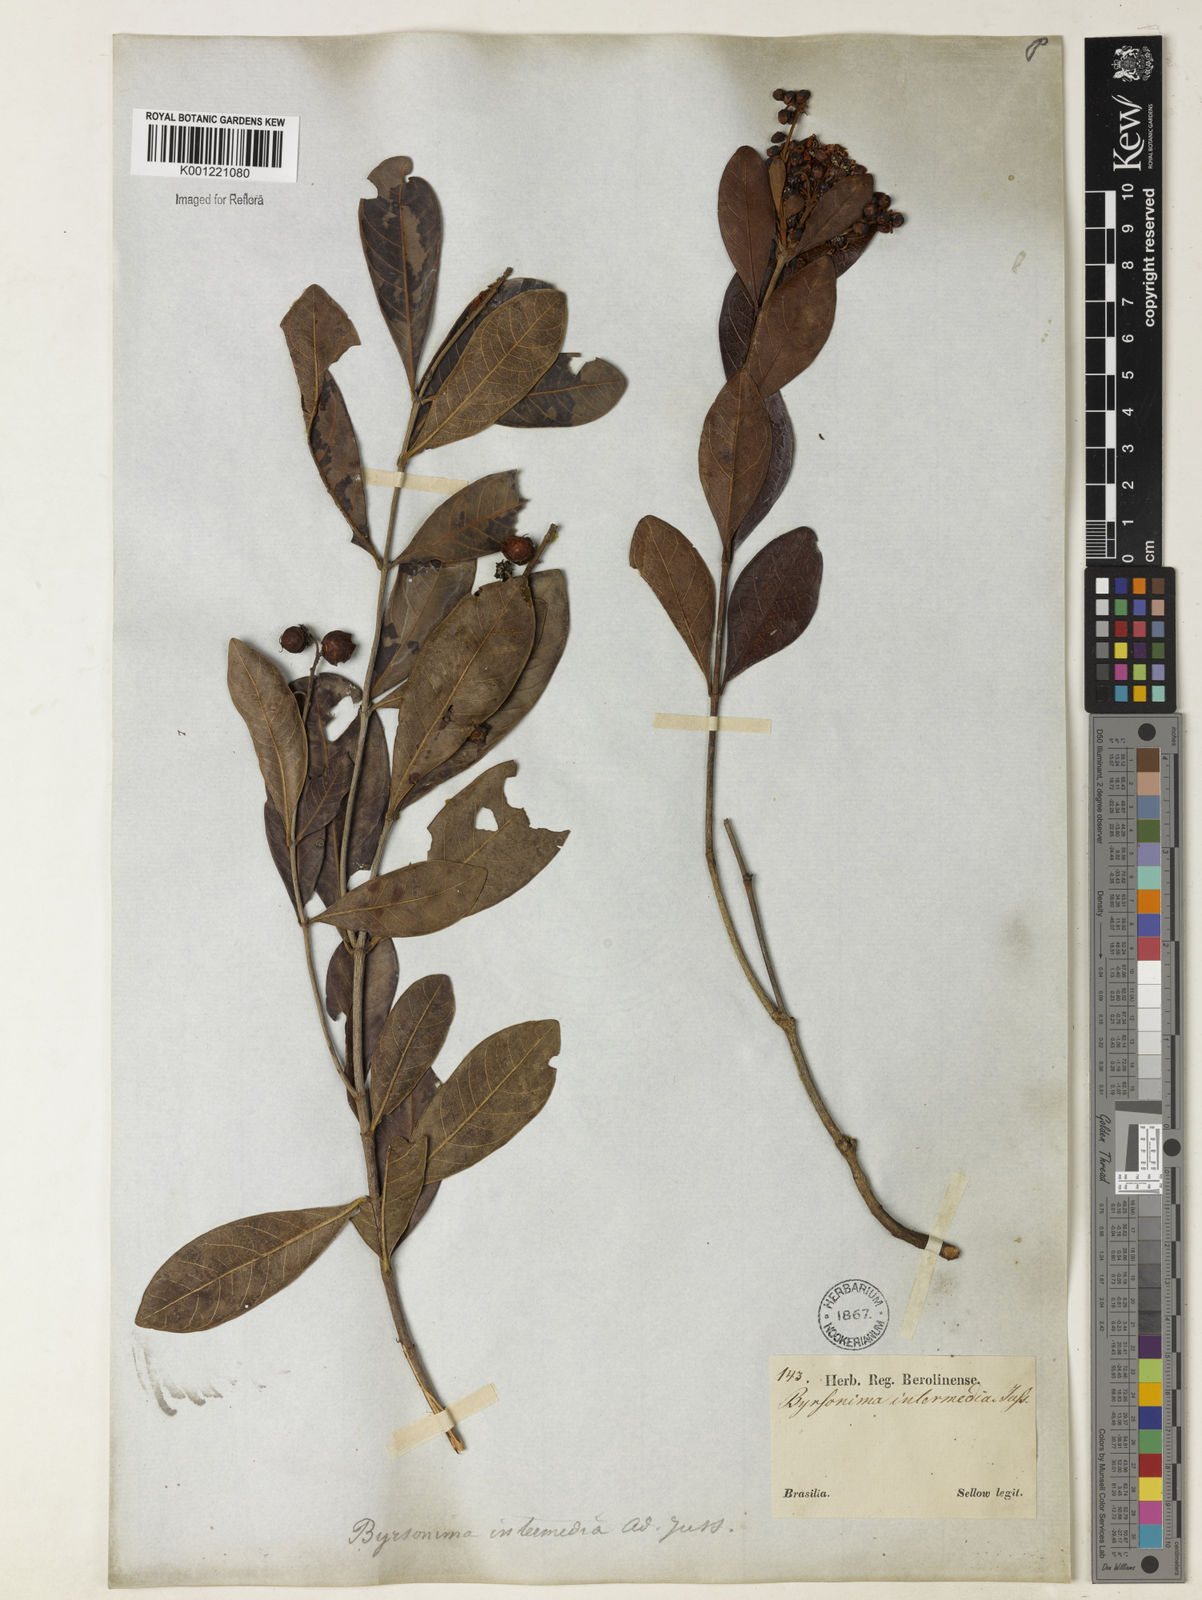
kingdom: Plantae
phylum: Tracheophyta
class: Magnoliopsida
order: Malpighiales
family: Malpighiaceae
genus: Byrsonima
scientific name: Byrsonima intermedia
